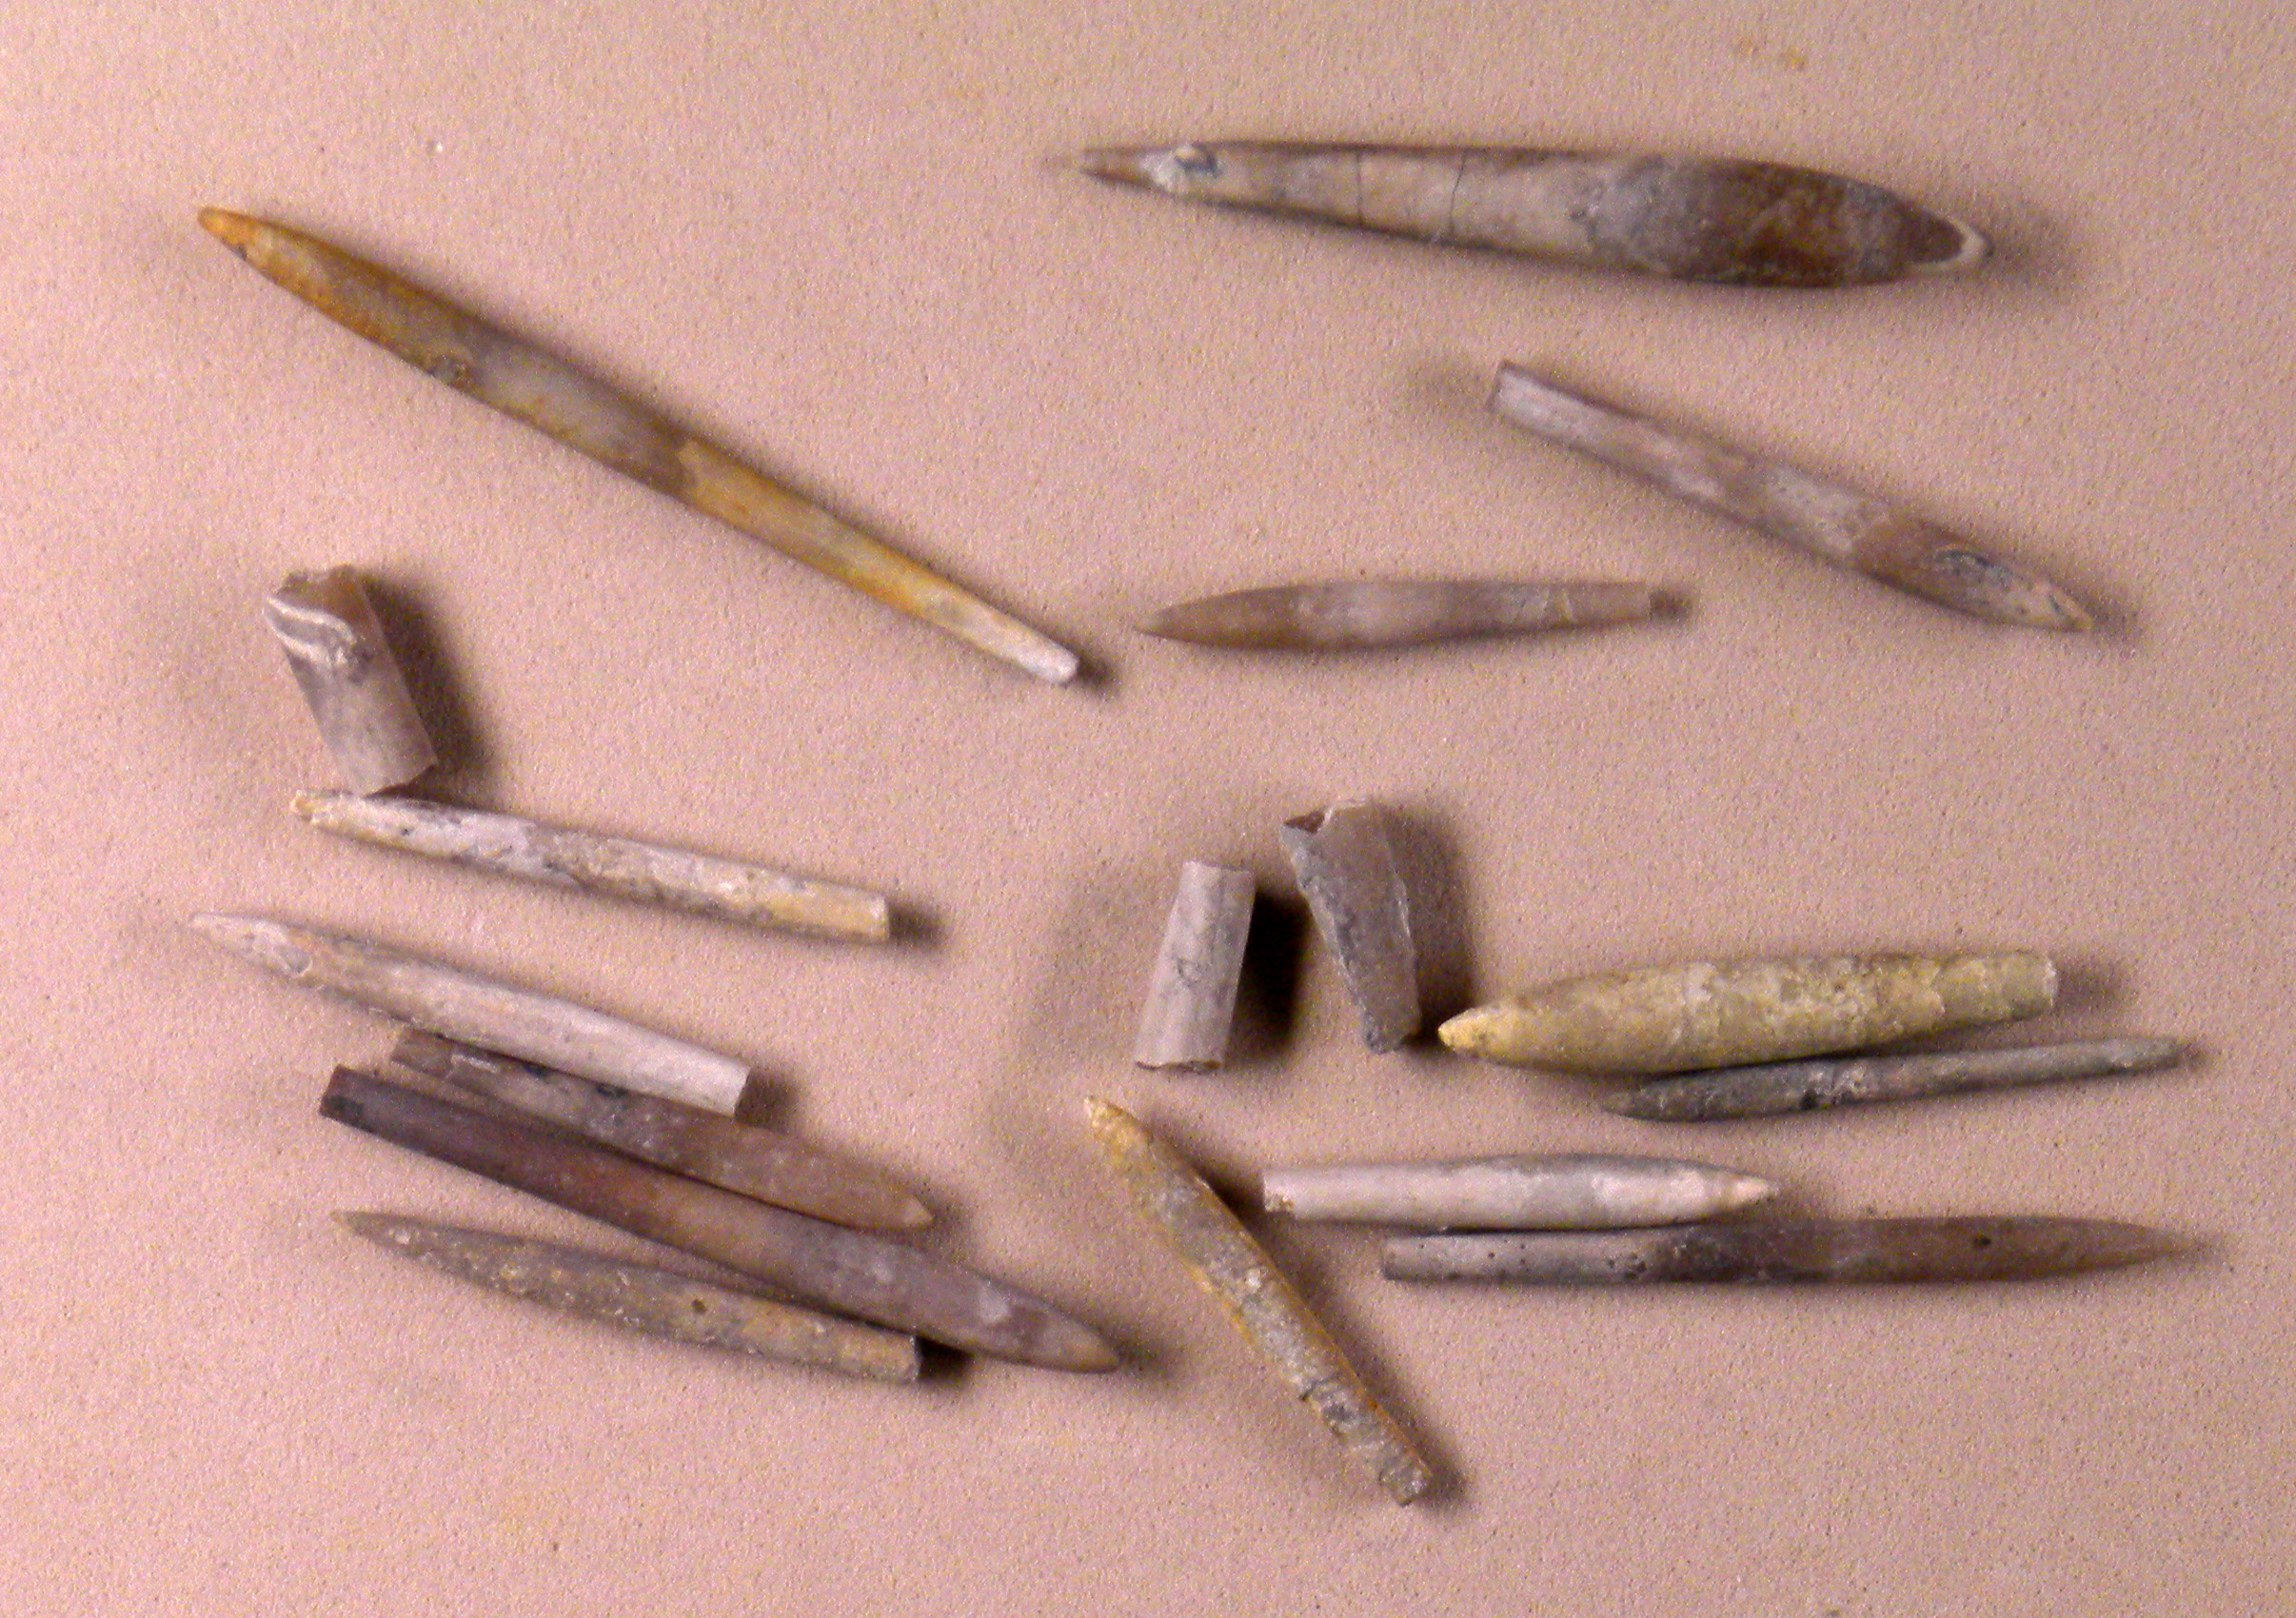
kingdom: Animalia
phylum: Mollusca
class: Cephalopoda
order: Belemnitida
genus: Subhastites
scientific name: Subhastites
